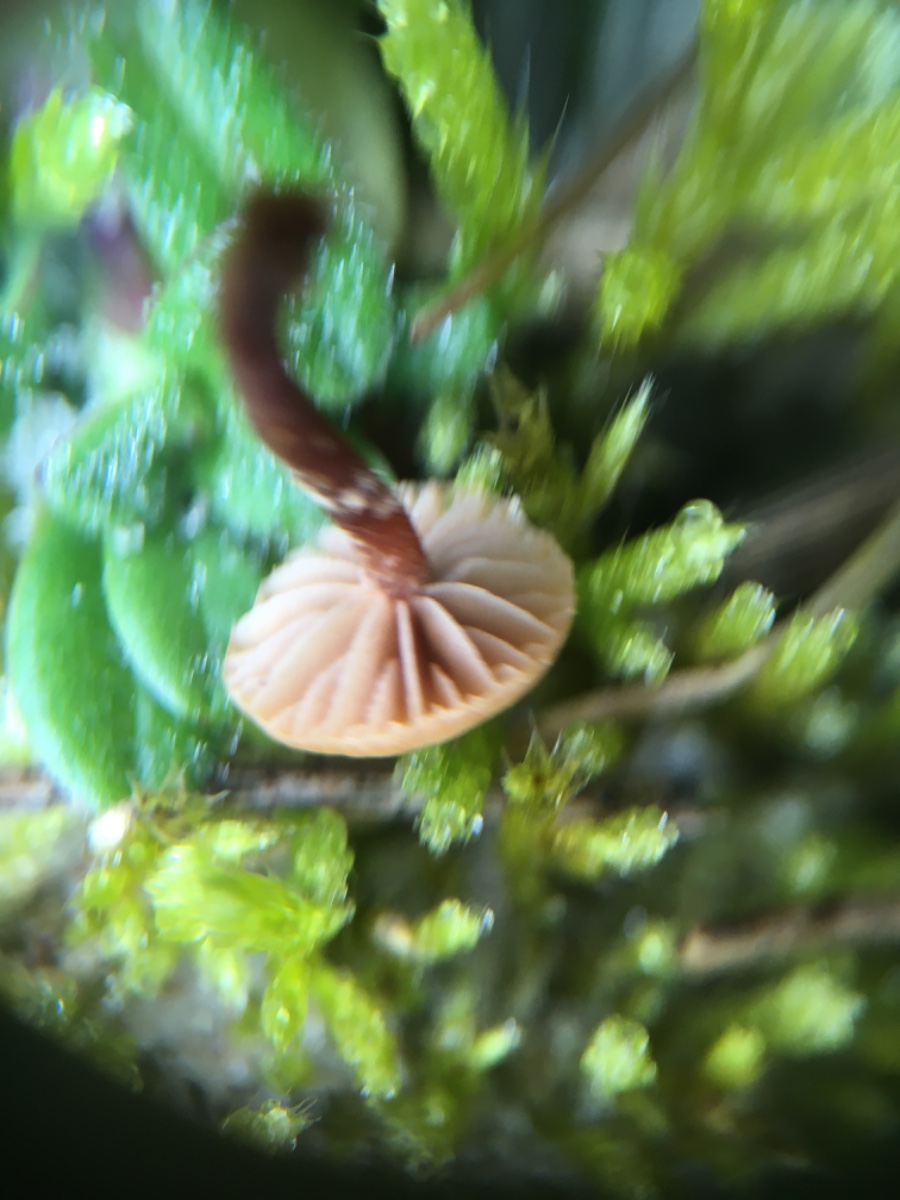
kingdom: Fungi
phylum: Basidiomycota
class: Agaricomycetes
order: Agaricales
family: Strophariaceae
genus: Deconica
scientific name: Deconica
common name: stråhat
